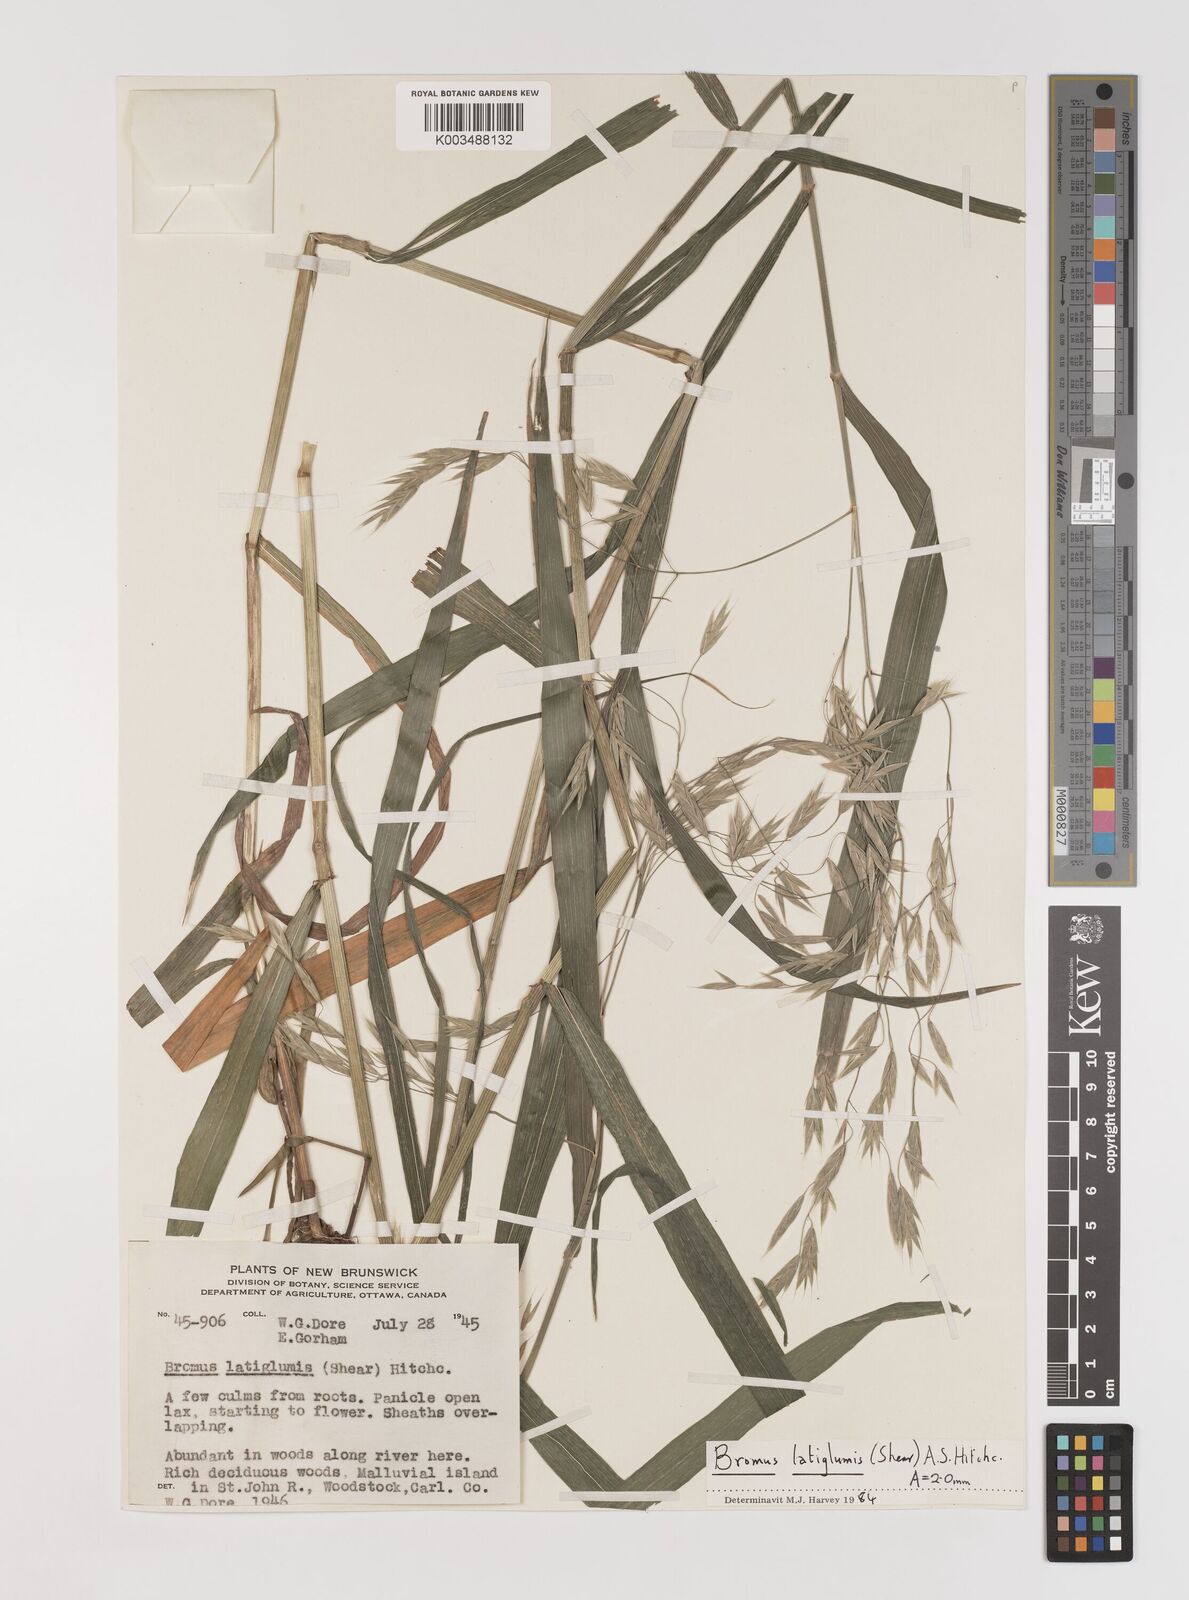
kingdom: Plantae
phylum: Tracheophyta
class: Liliopsida
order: Poales
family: Poaceae
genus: Bromus
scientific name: Bromus latiglumis
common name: Broad-glumed brome
